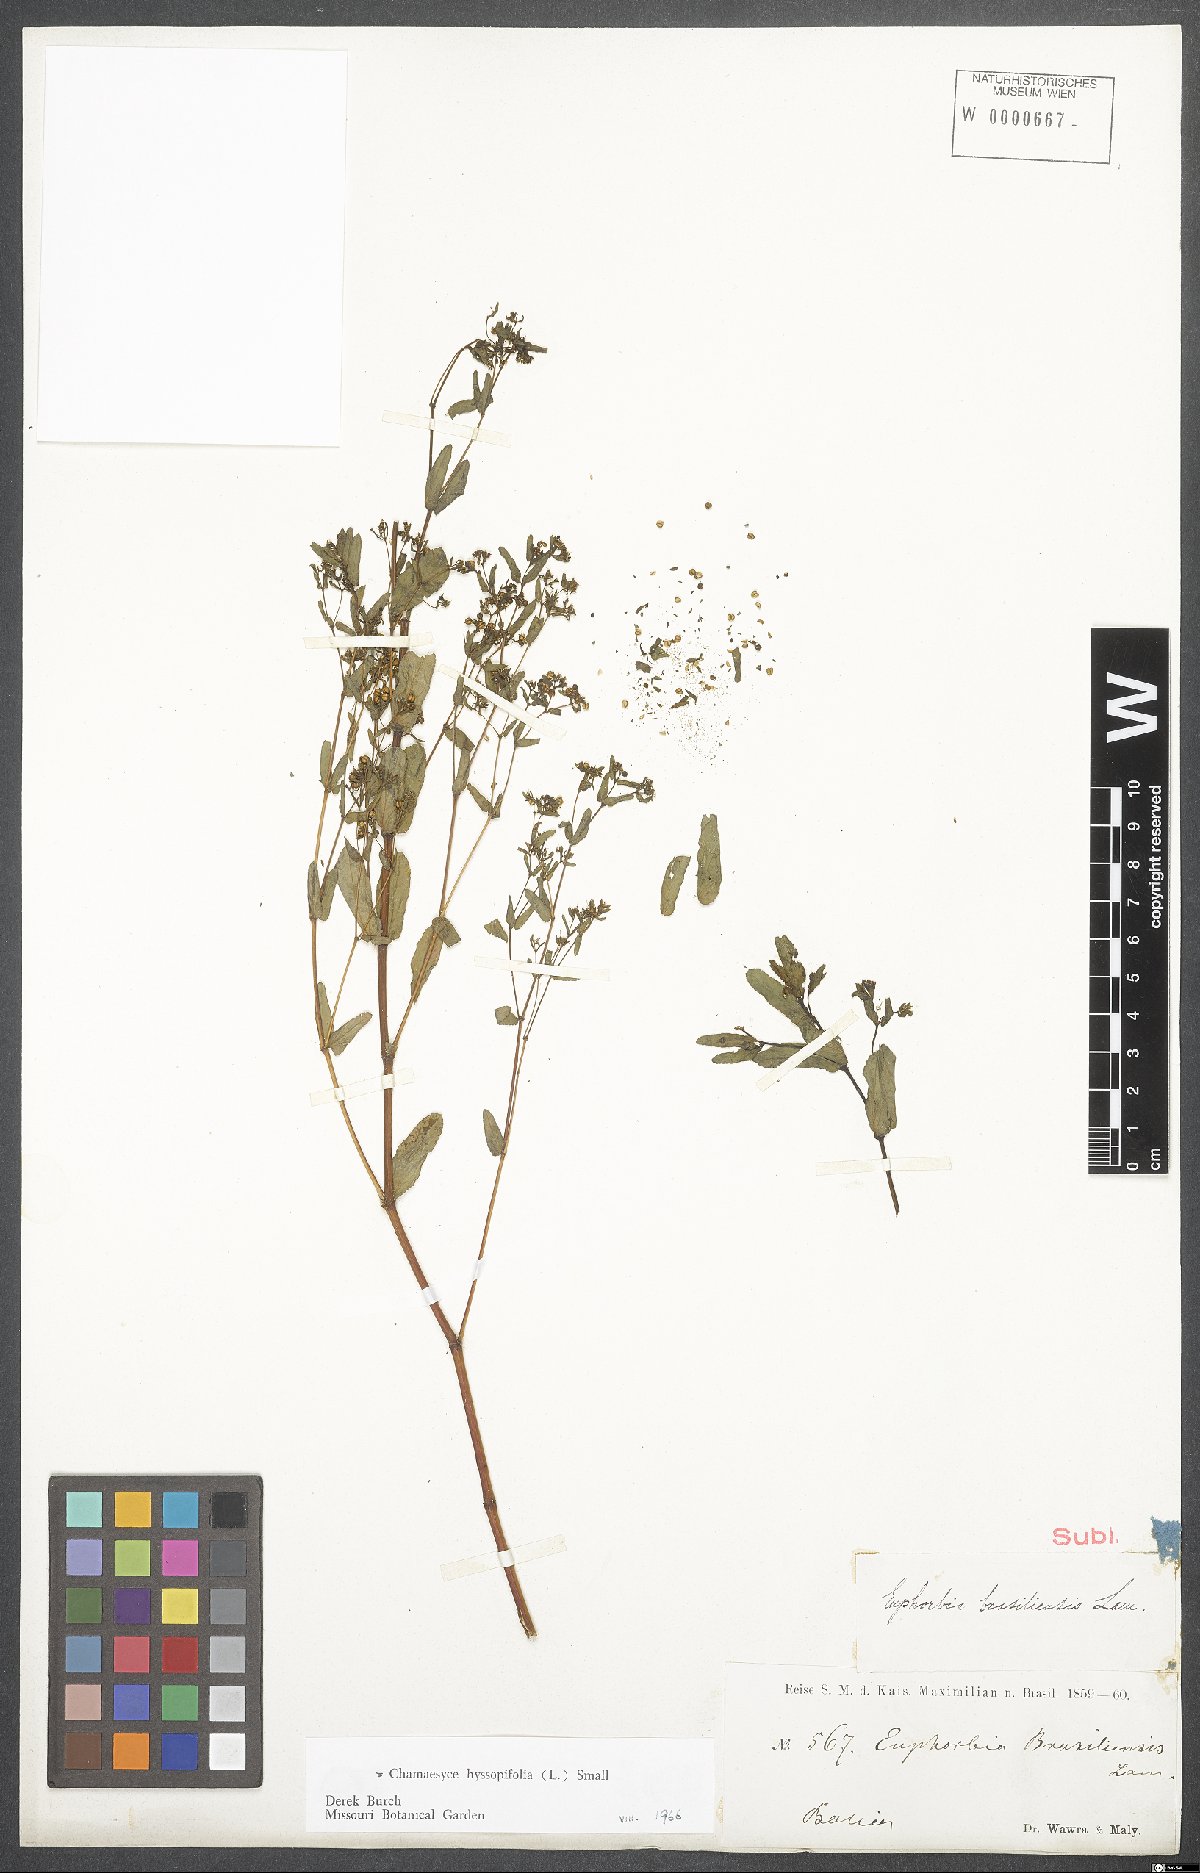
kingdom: Plantae
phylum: Tracheophyta
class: Magnoliopsida
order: Malpighiales
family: Euphorbiaceae
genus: Euphorbia
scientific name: Euphorbia hyssopifolia
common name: Hyssopleaf sandmat
